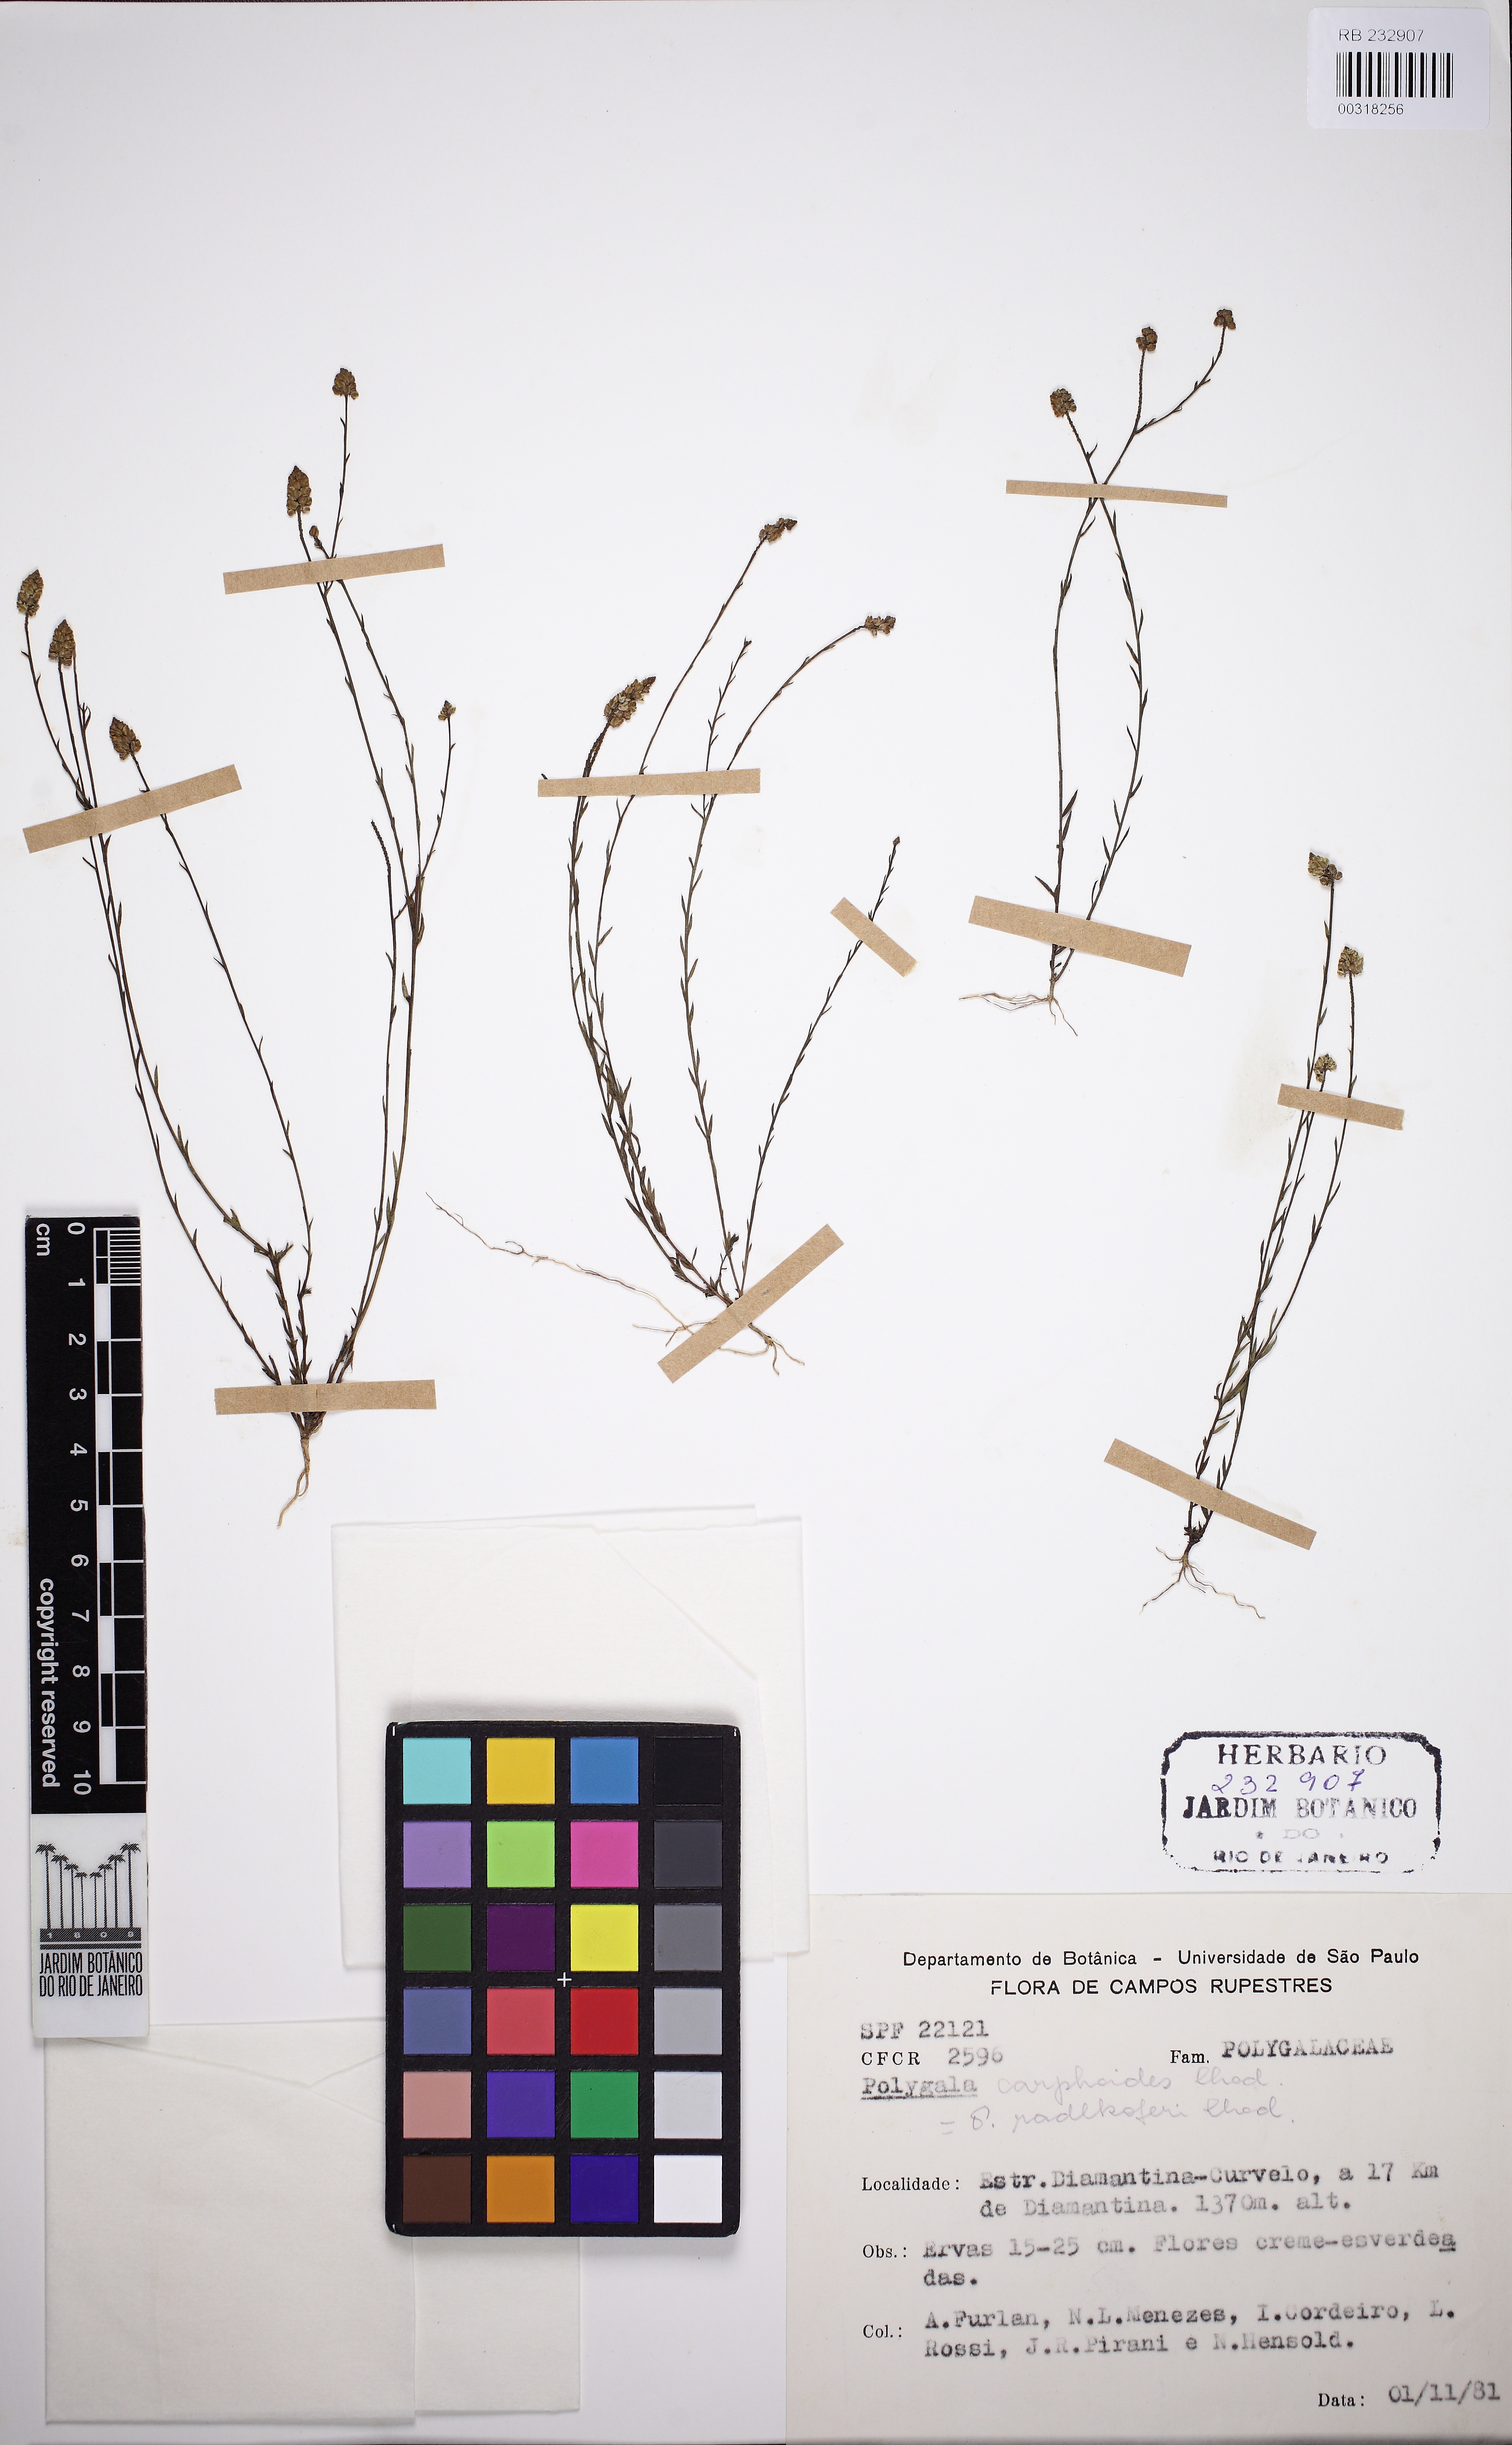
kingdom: Plantae
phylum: Tracheophyta
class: Magnoliopsida
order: Fabales
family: Polygalaceae
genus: Polygala
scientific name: Polygala carphoides
